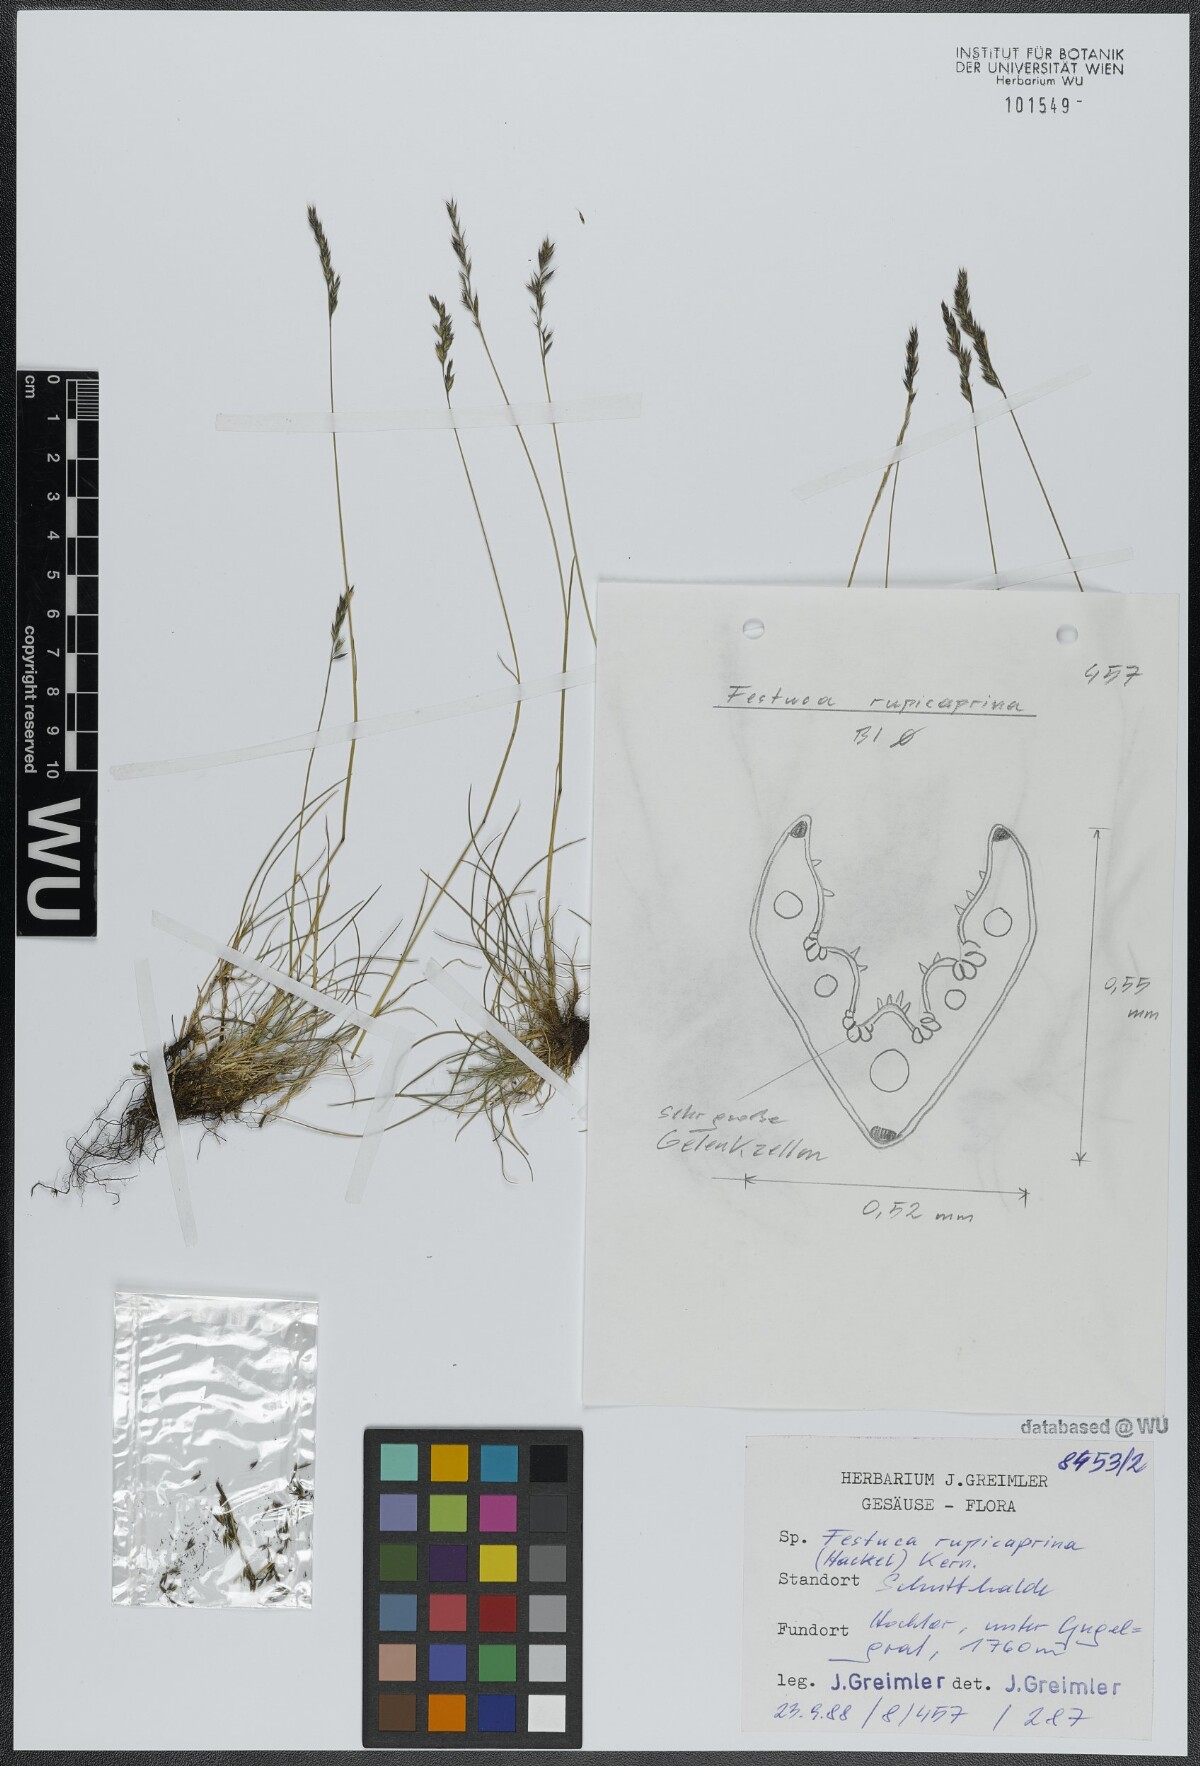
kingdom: Plantae
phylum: Tracheophyta
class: Liliopsida
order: Poales
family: Poaceae
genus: Festuca
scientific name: Festuca rupicaprina
